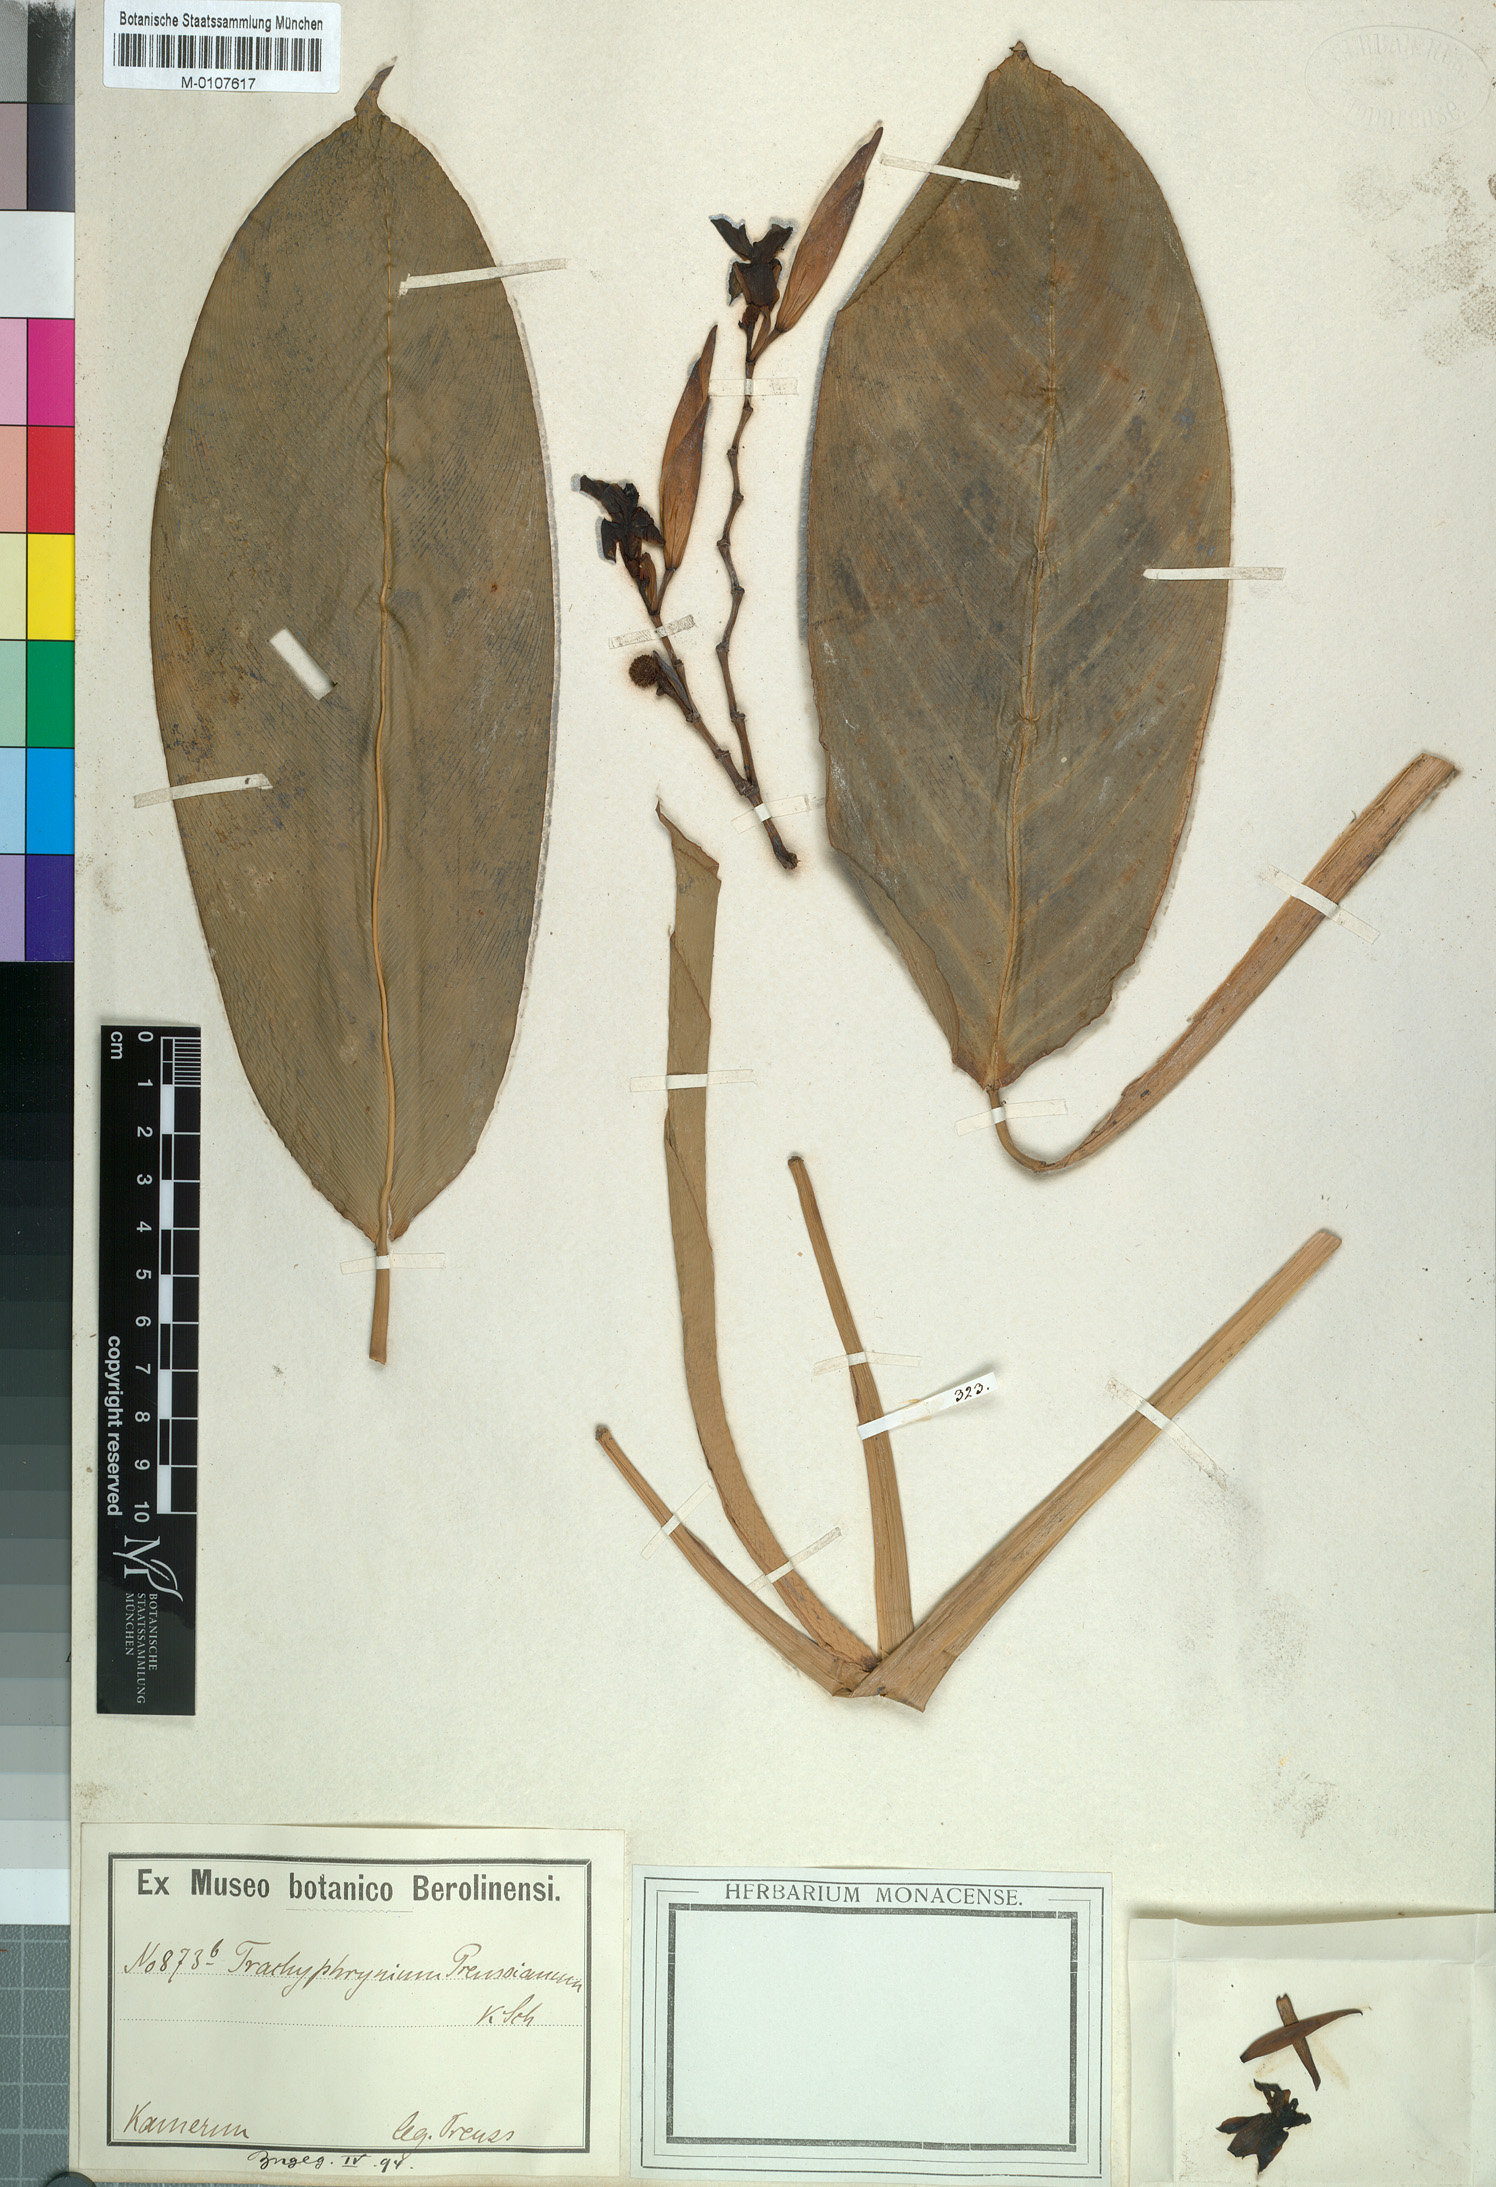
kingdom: Plantae
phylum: Tracheophyta
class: Liliopsida
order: Zingiberales
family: Marantaceae
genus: Hypselodelphys
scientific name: Hypselodelphys violacea
